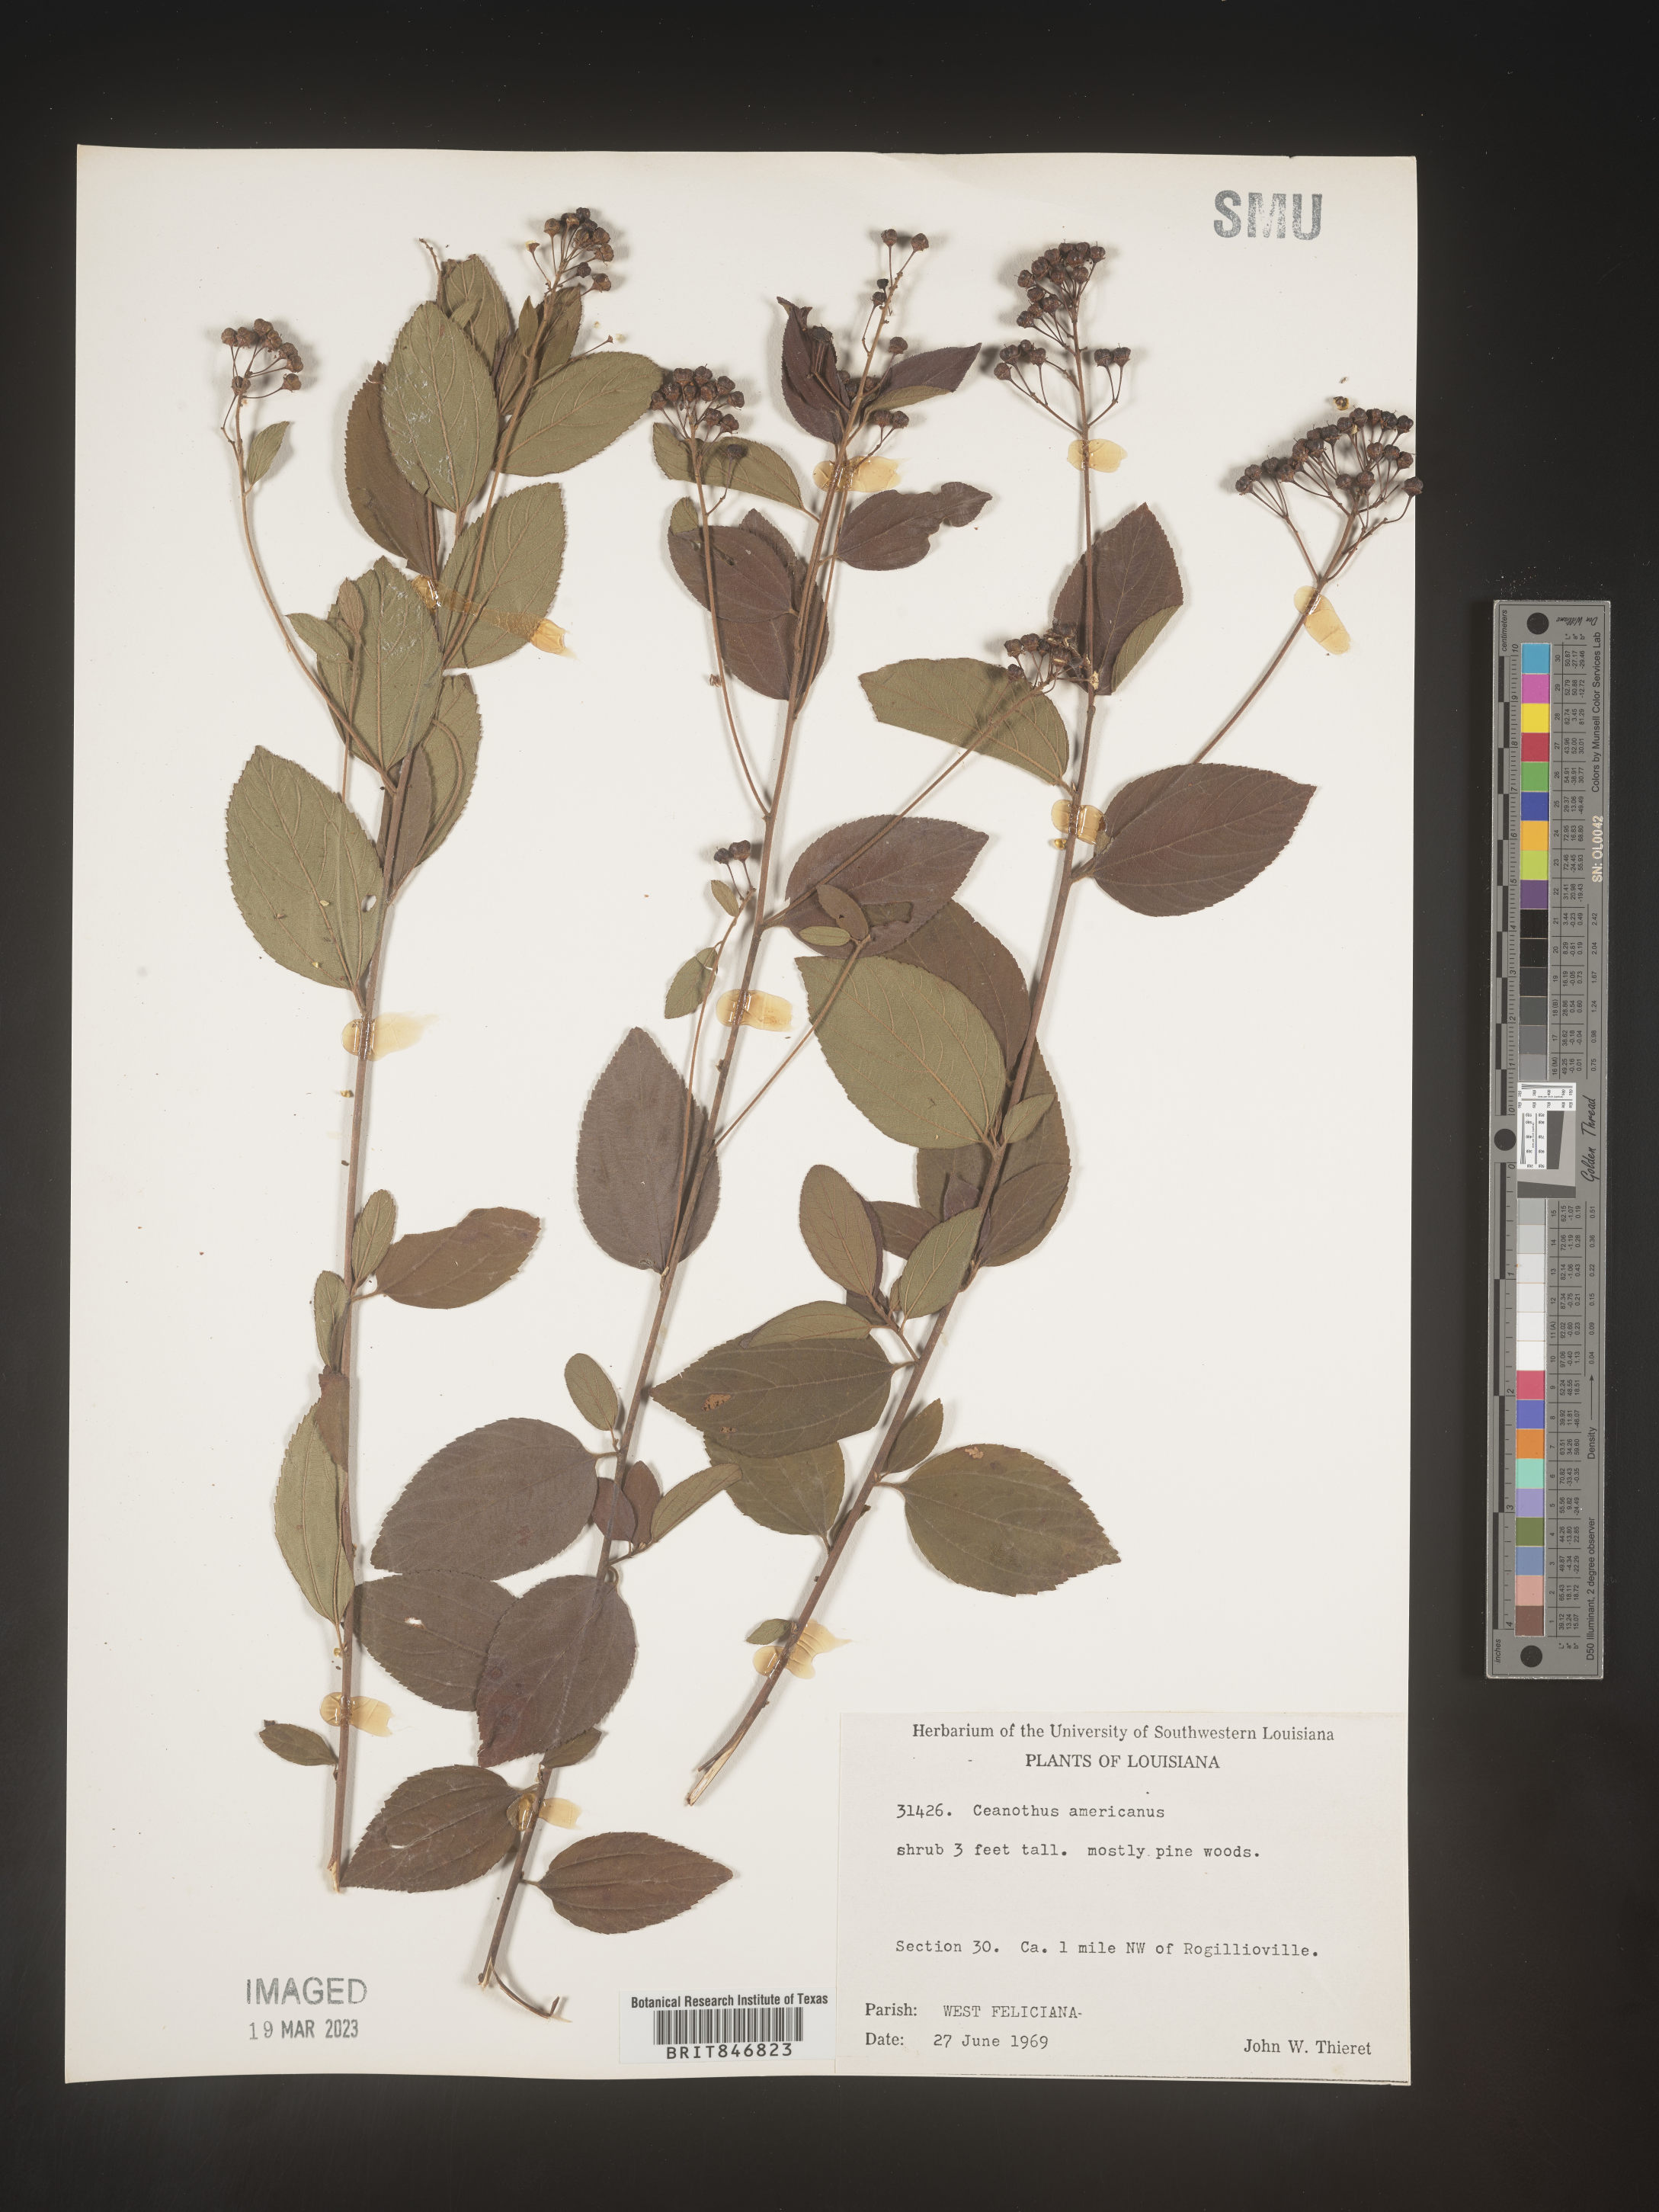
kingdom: Plantae
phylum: Tracheophyta
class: Magnoliopsida
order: Rosales
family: Rhamnaceae
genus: Ceanothus
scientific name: Ceanothus americanus
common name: Redroot
